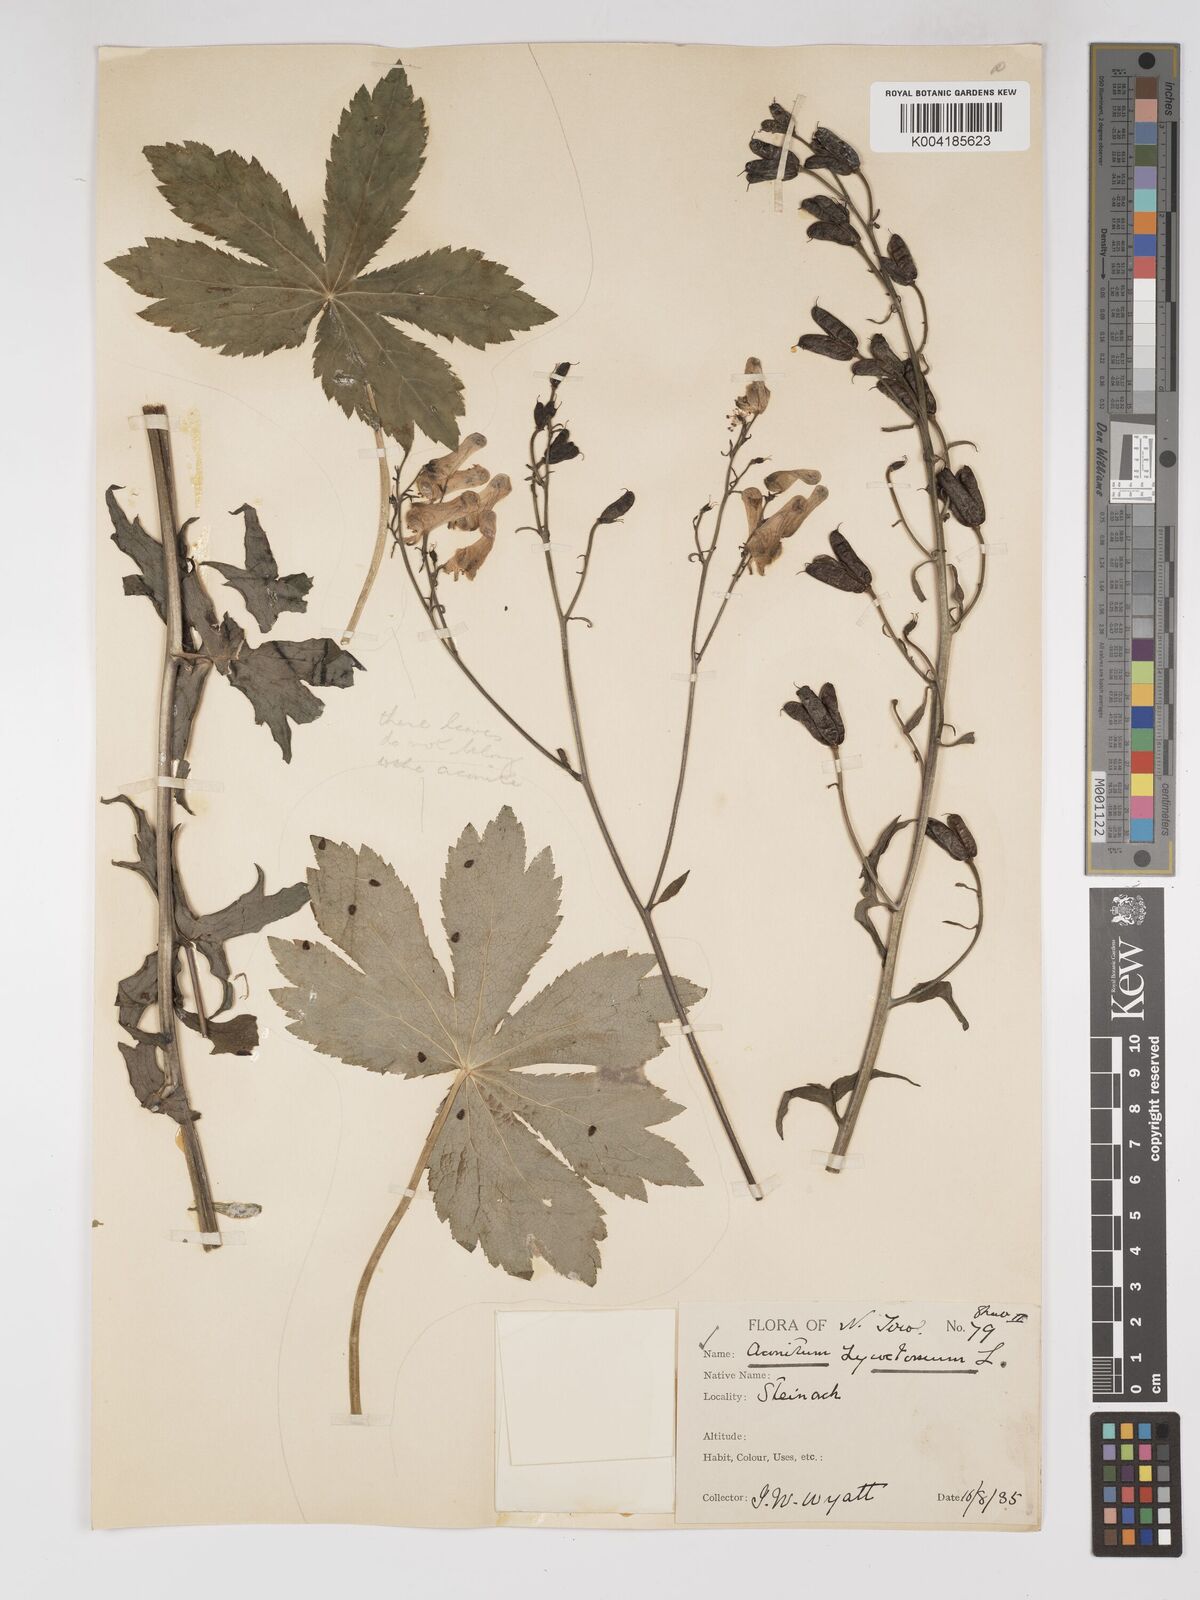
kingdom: Plantae
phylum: Tracheophyta
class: Magnoliopsida
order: Ranunculales
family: Ranunculaceae
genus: Aconitum
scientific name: Aconitum lycoctonum
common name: Wolf's-bane
